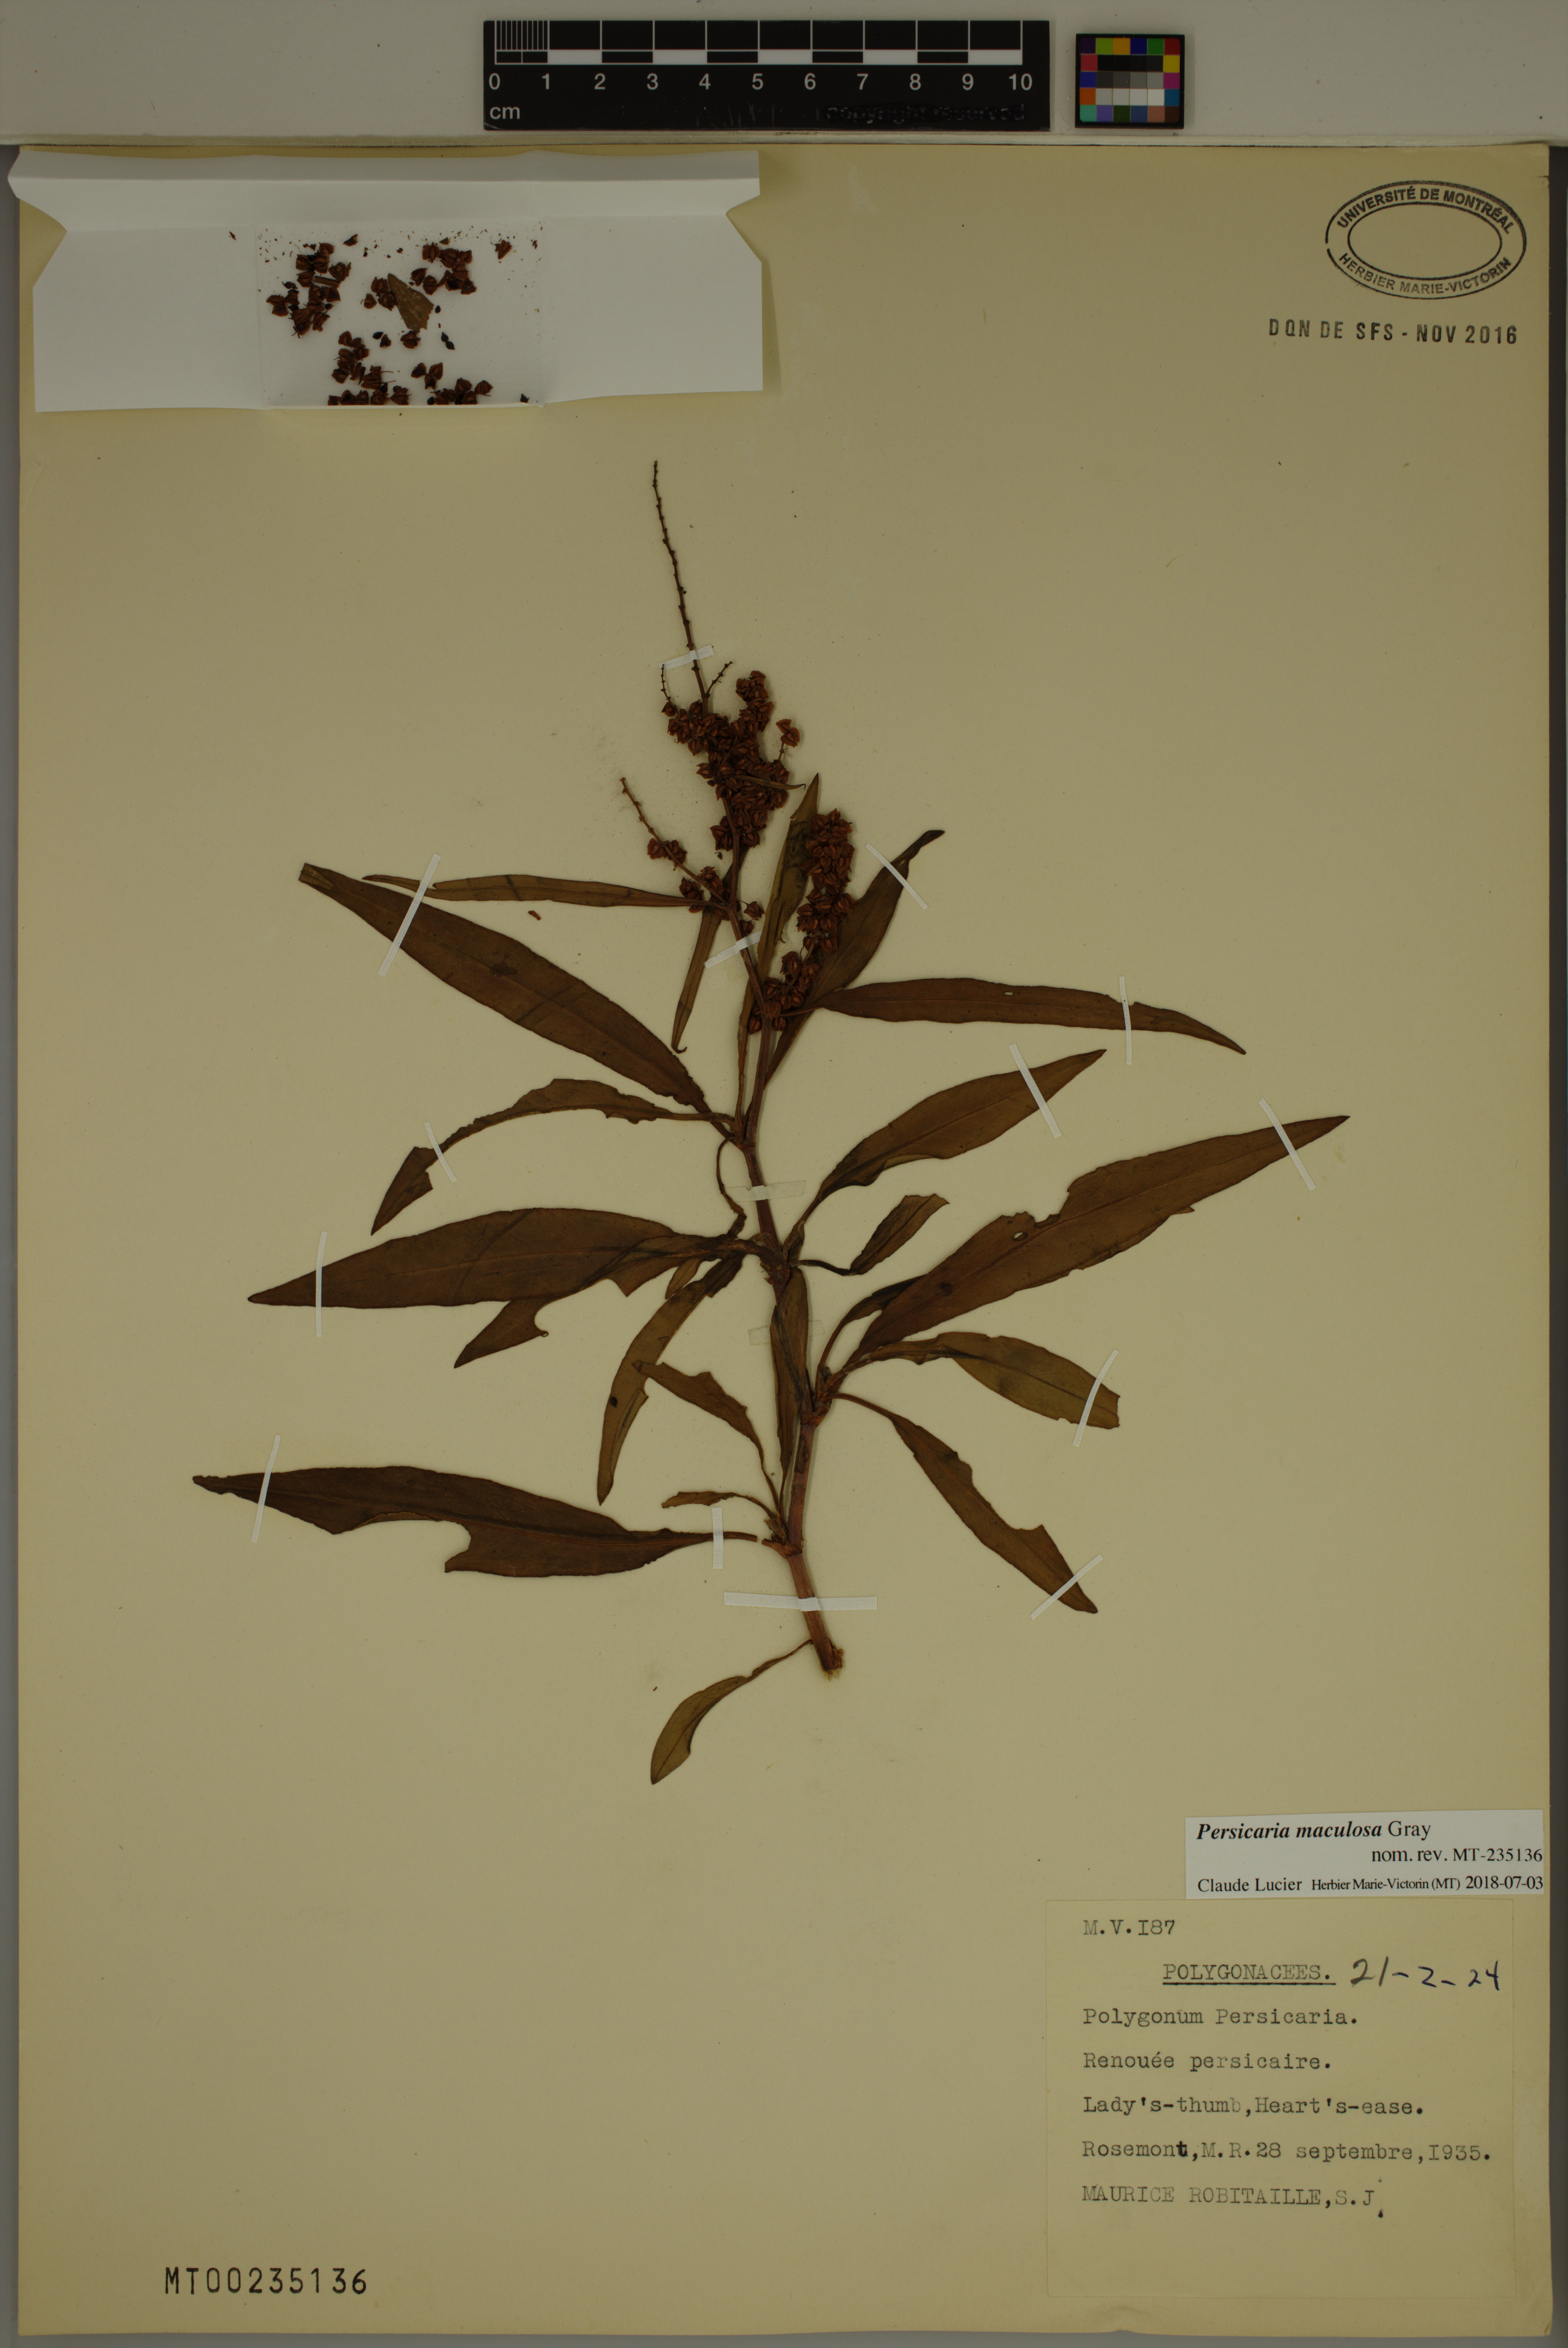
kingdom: Plantae
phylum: Tracheophyta
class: Magnoliopsida
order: Caryophyllales
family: Polygonaceae
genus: Persicaria
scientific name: Persicaria maculosa
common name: Redshank
